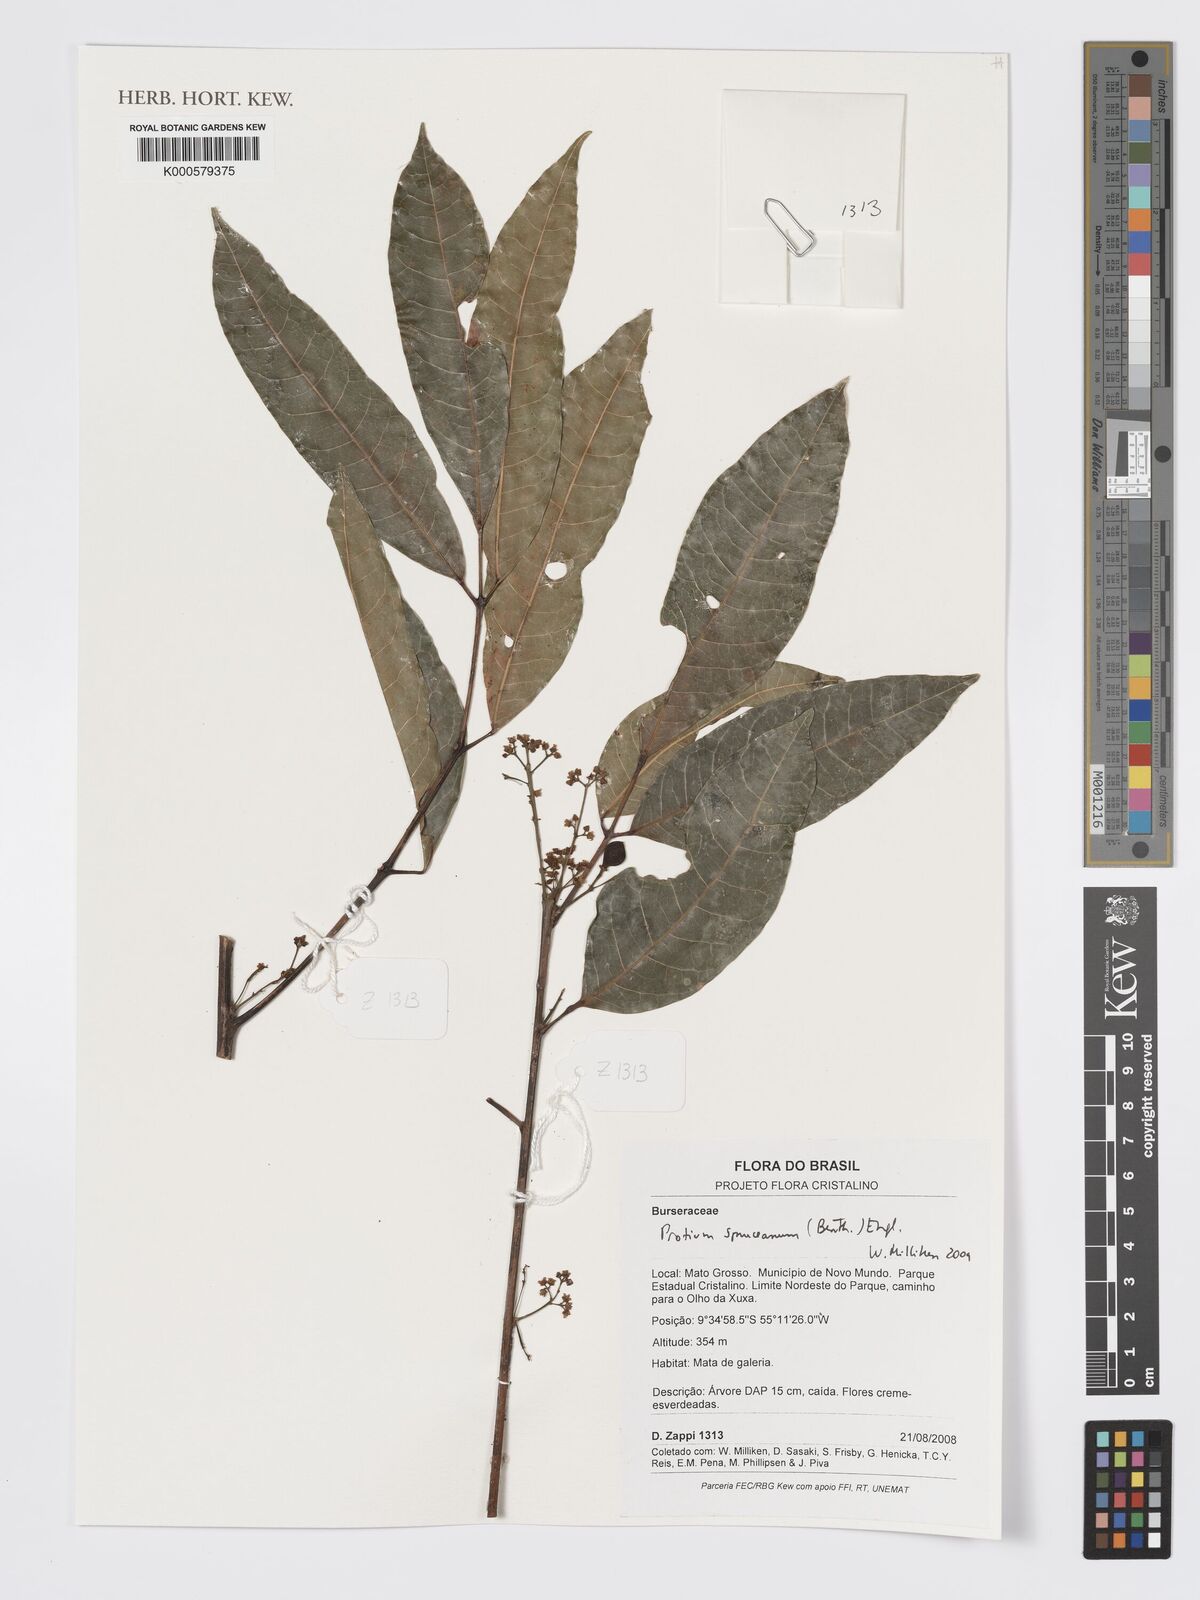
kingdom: Plantae
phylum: Tracheophyta
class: Magnoliopsida
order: Sapindales
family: Burseraceae
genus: Protium
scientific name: Protium spruceanum
